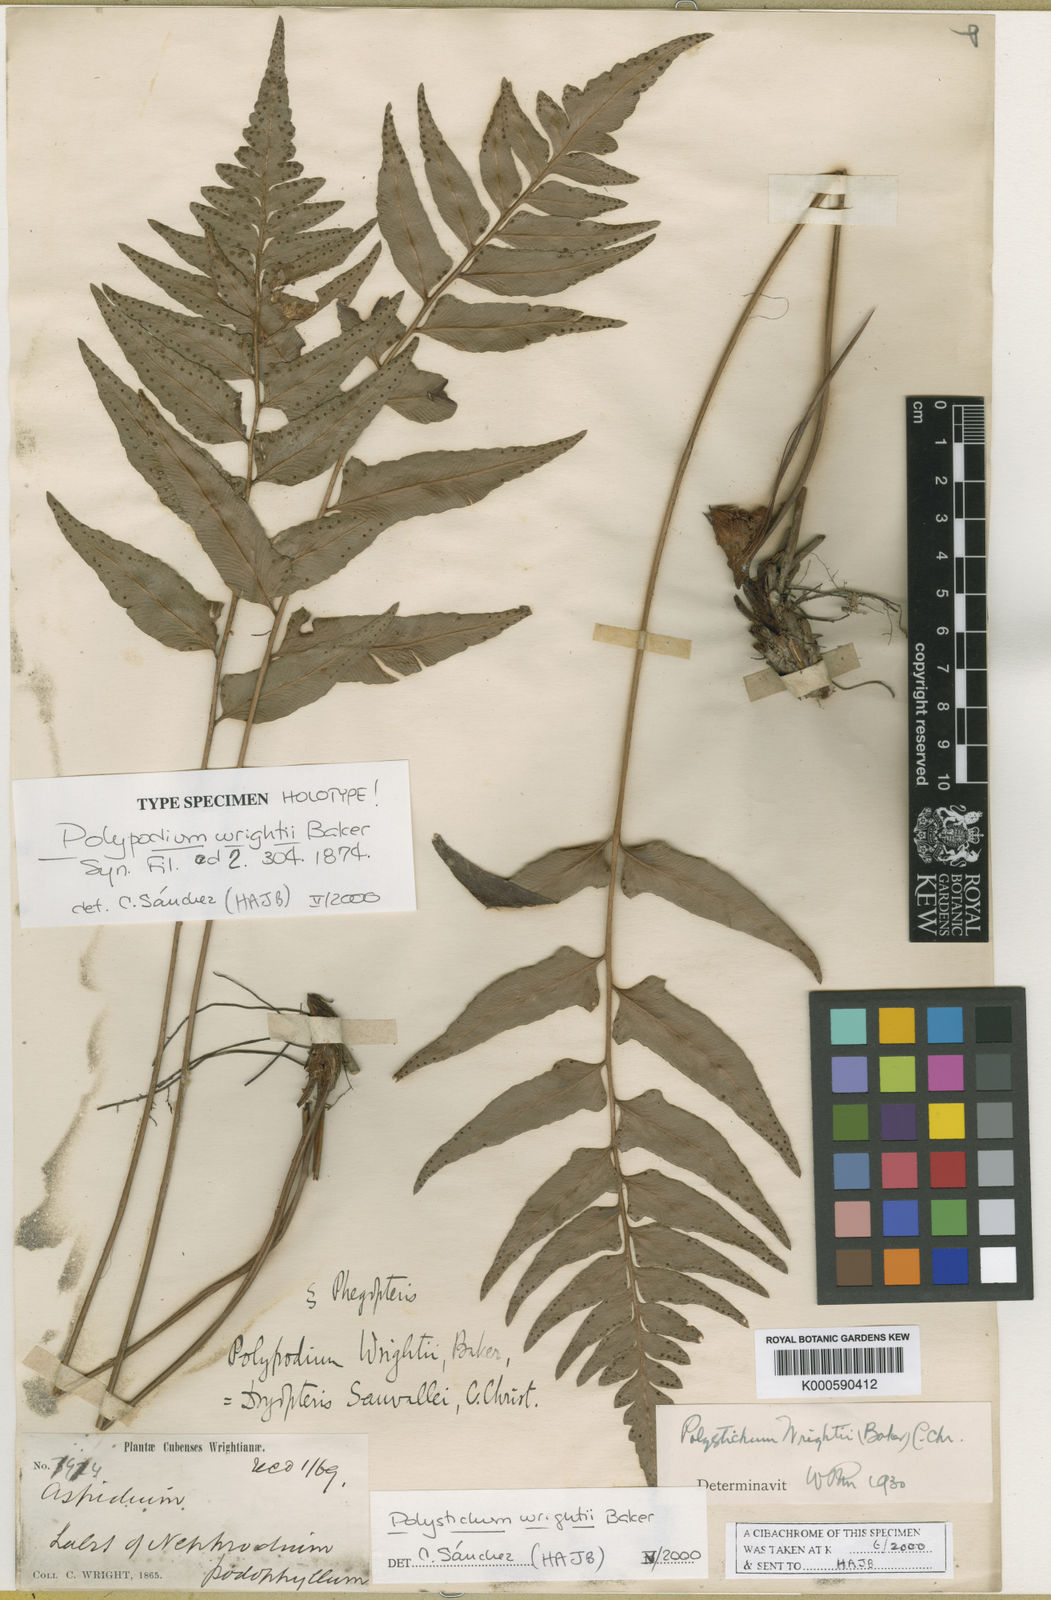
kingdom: Plantae
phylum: Tracheophyta
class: Polypodiopsida
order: Polypodiales
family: Dryopteridaceae
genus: Polystichum
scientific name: Polystichum
